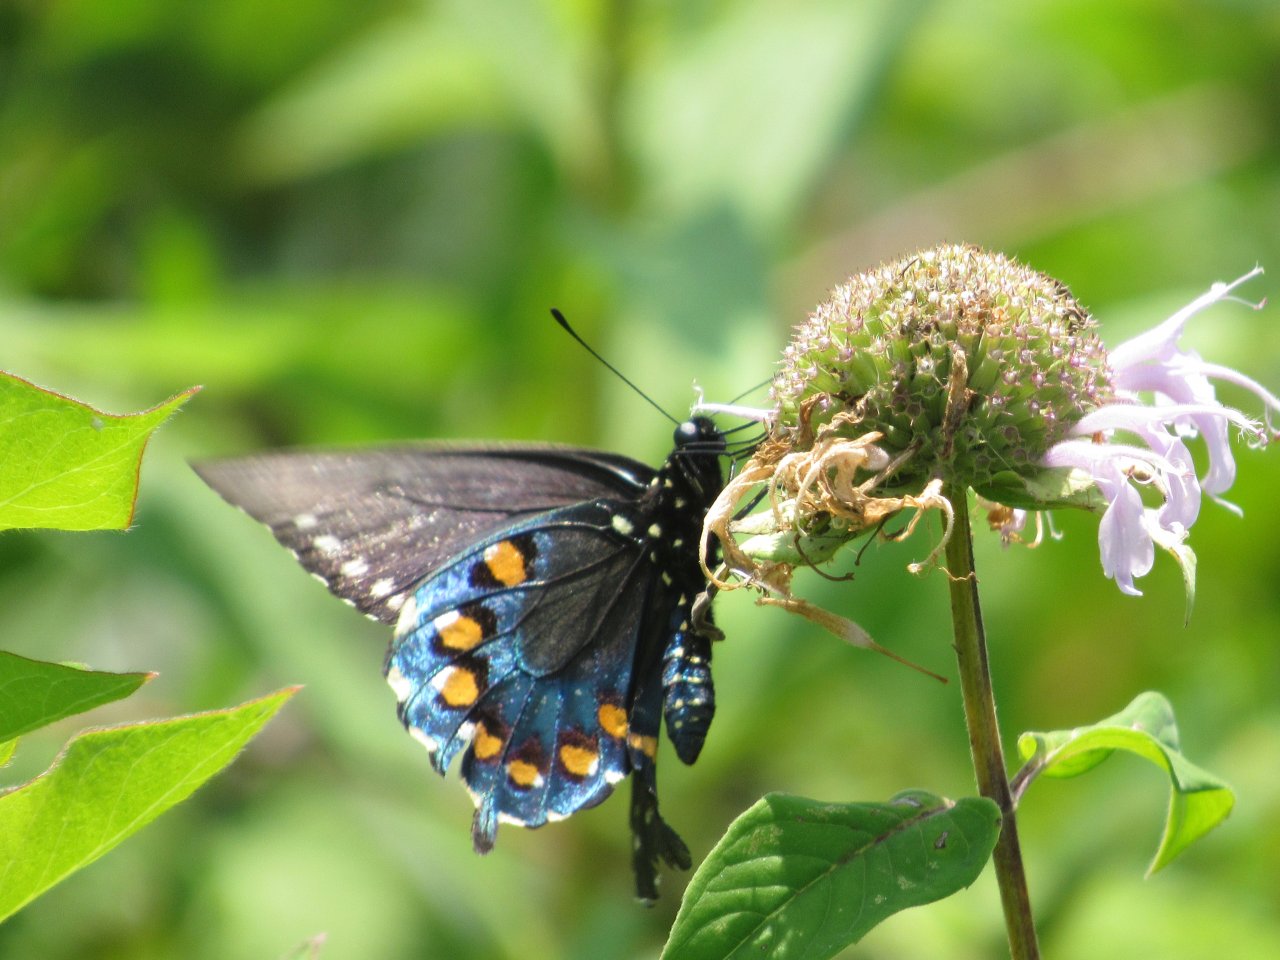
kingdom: Animalia
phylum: Arthropoda
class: Insecta
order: Lepidoptera
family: Papilionidae
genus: Battus
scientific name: Battus philenor
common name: Pipevine Swallowtail
